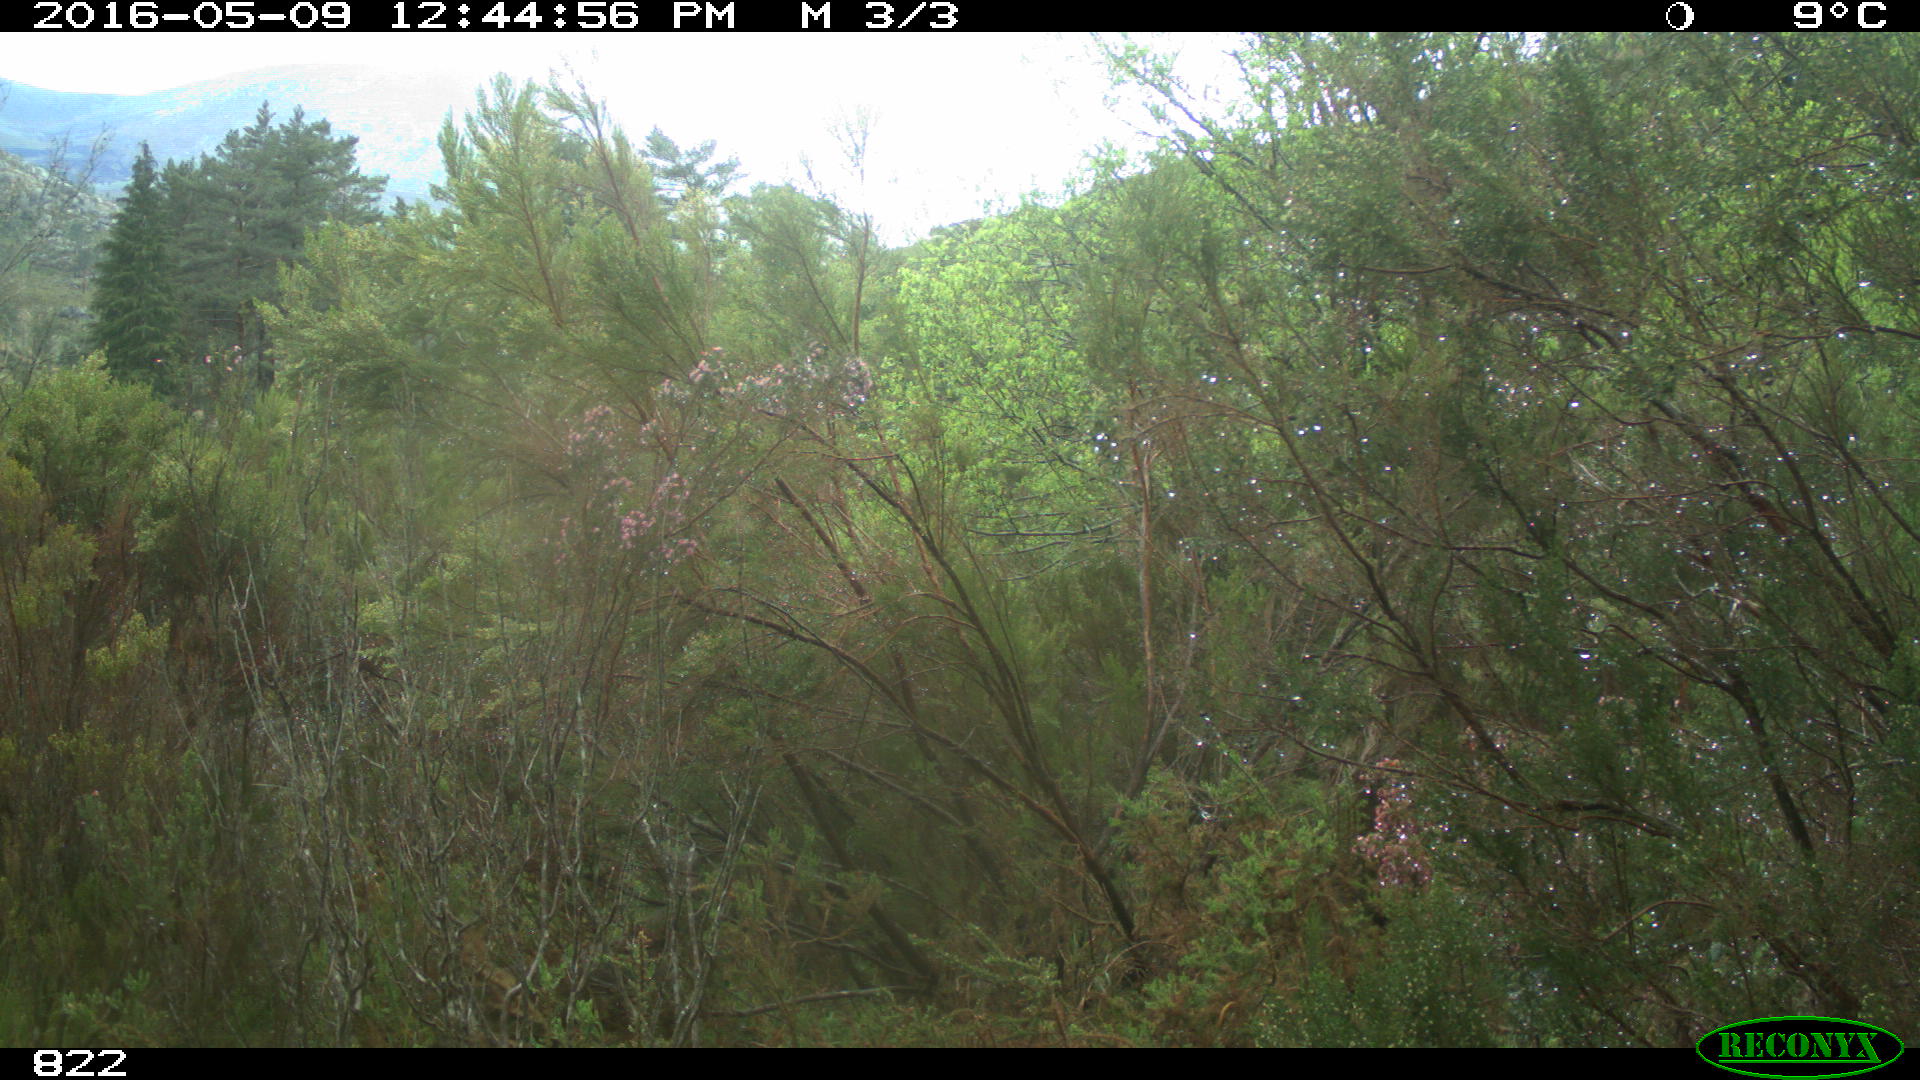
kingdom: Animalia
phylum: Chordata
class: Mammalia
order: Artiodactyla
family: Cervidae
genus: Capreolus
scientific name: Capreolus capreolus
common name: Western roe deer
